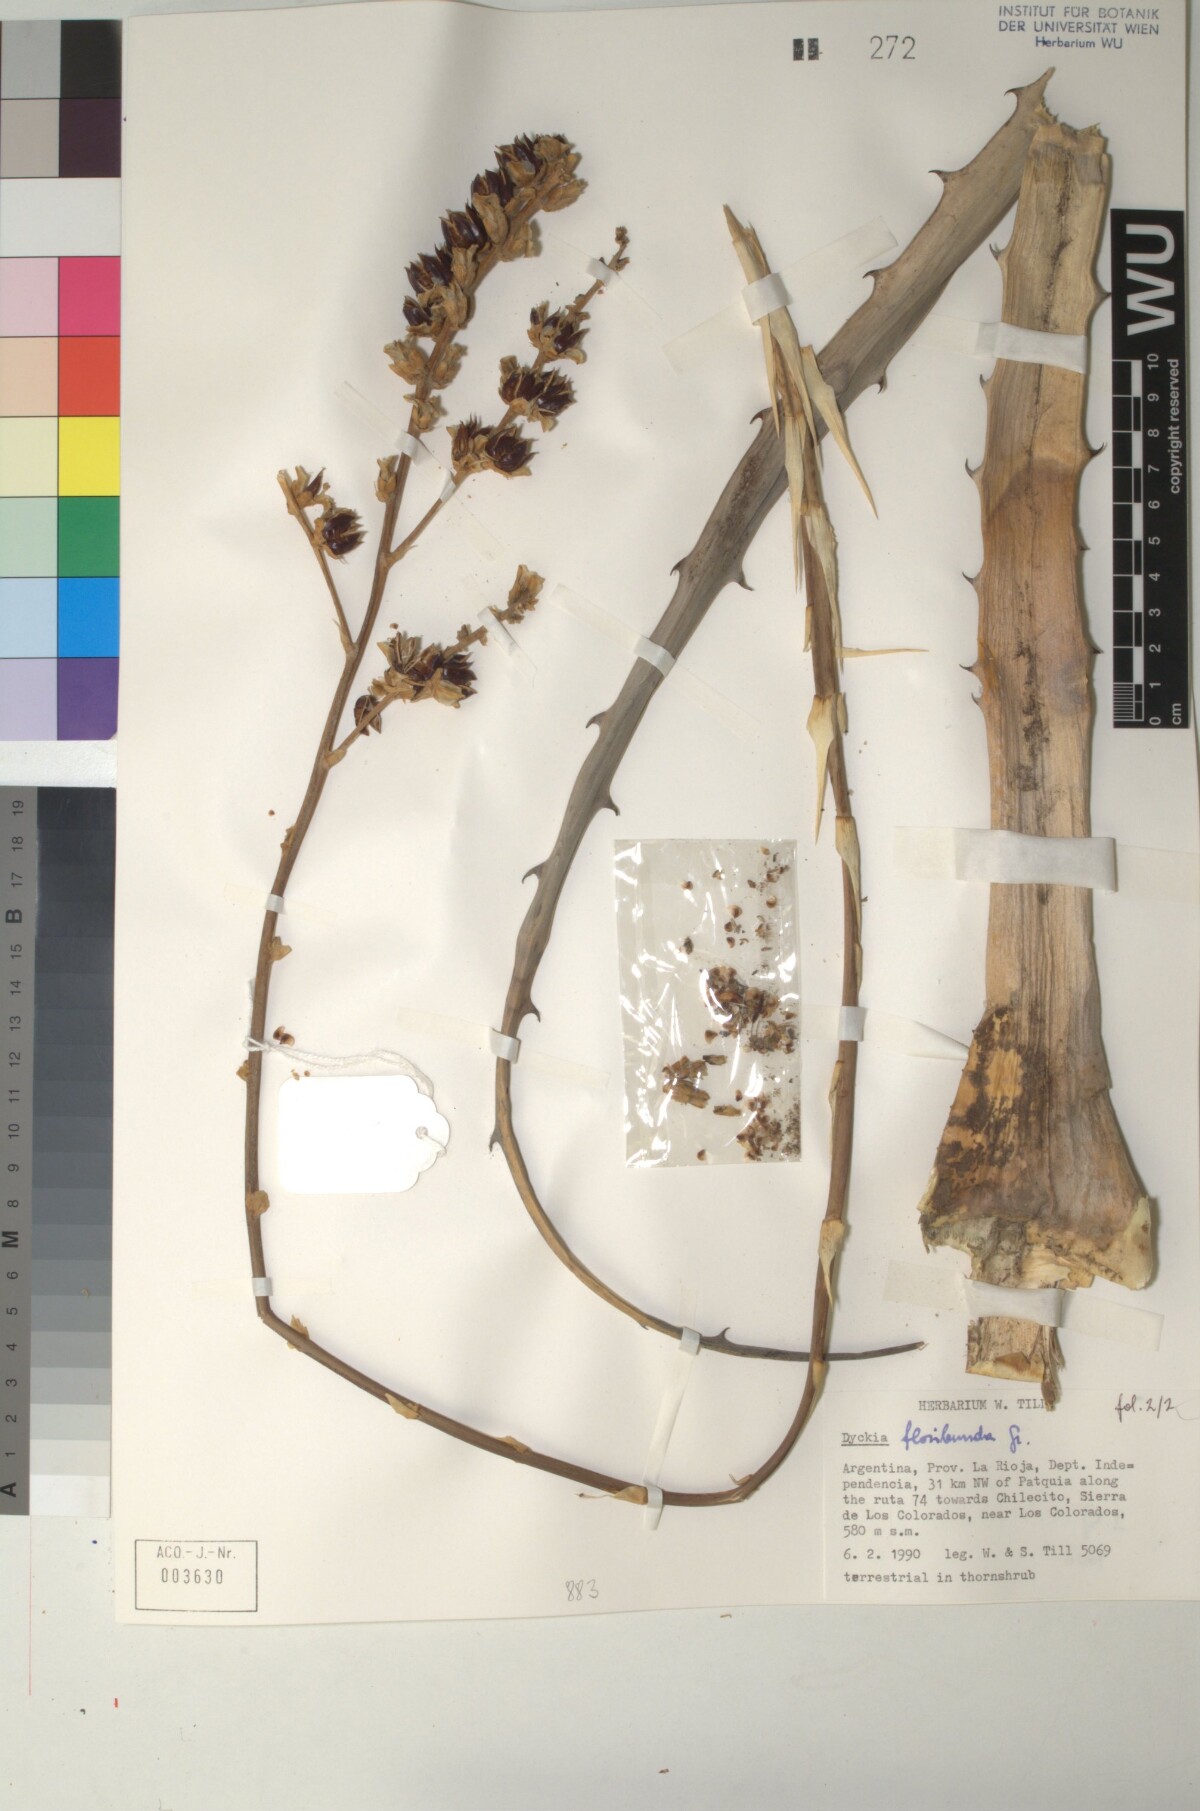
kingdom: Plantae
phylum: Tracheophyta
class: Liliopsida
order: Poales
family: Bromeliaceae
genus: Dyckia
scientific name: Dyckia floribunda
